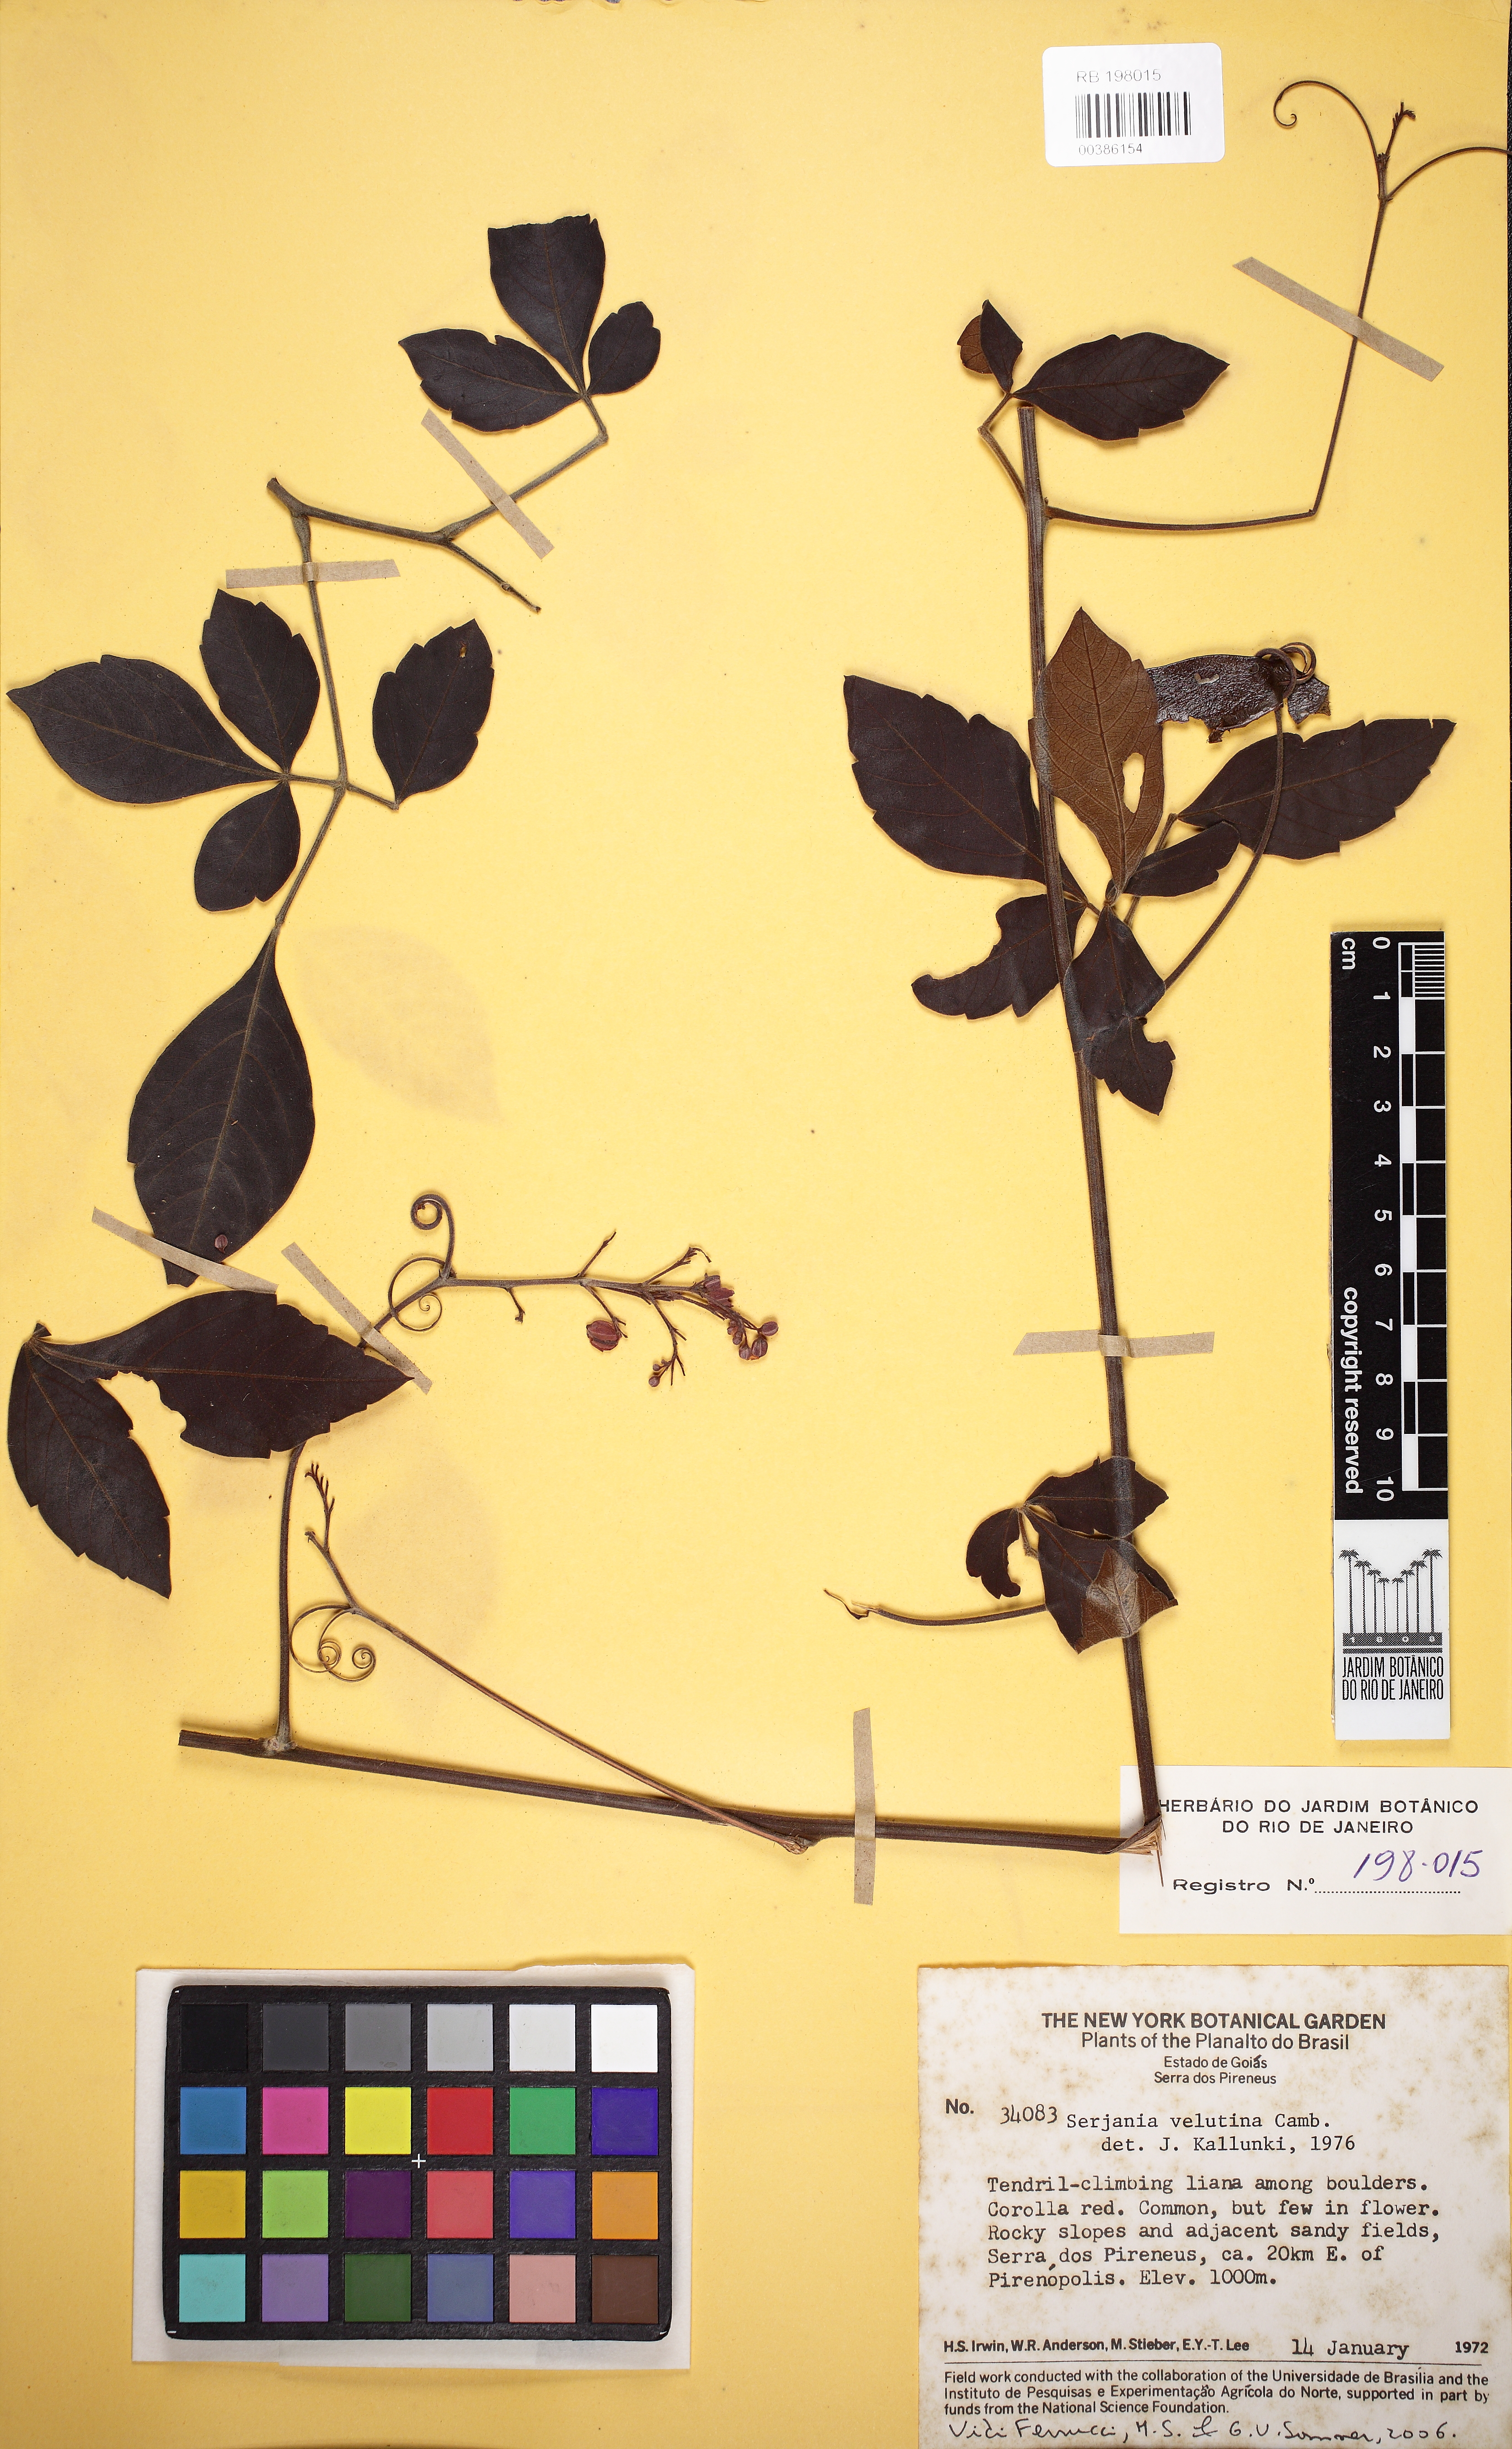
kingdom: Plantae
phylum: Tracheophyta
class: Magnoliopsida
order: Sapindales
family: Sapindaceae
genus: Serjania
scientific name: Serjania velutina
